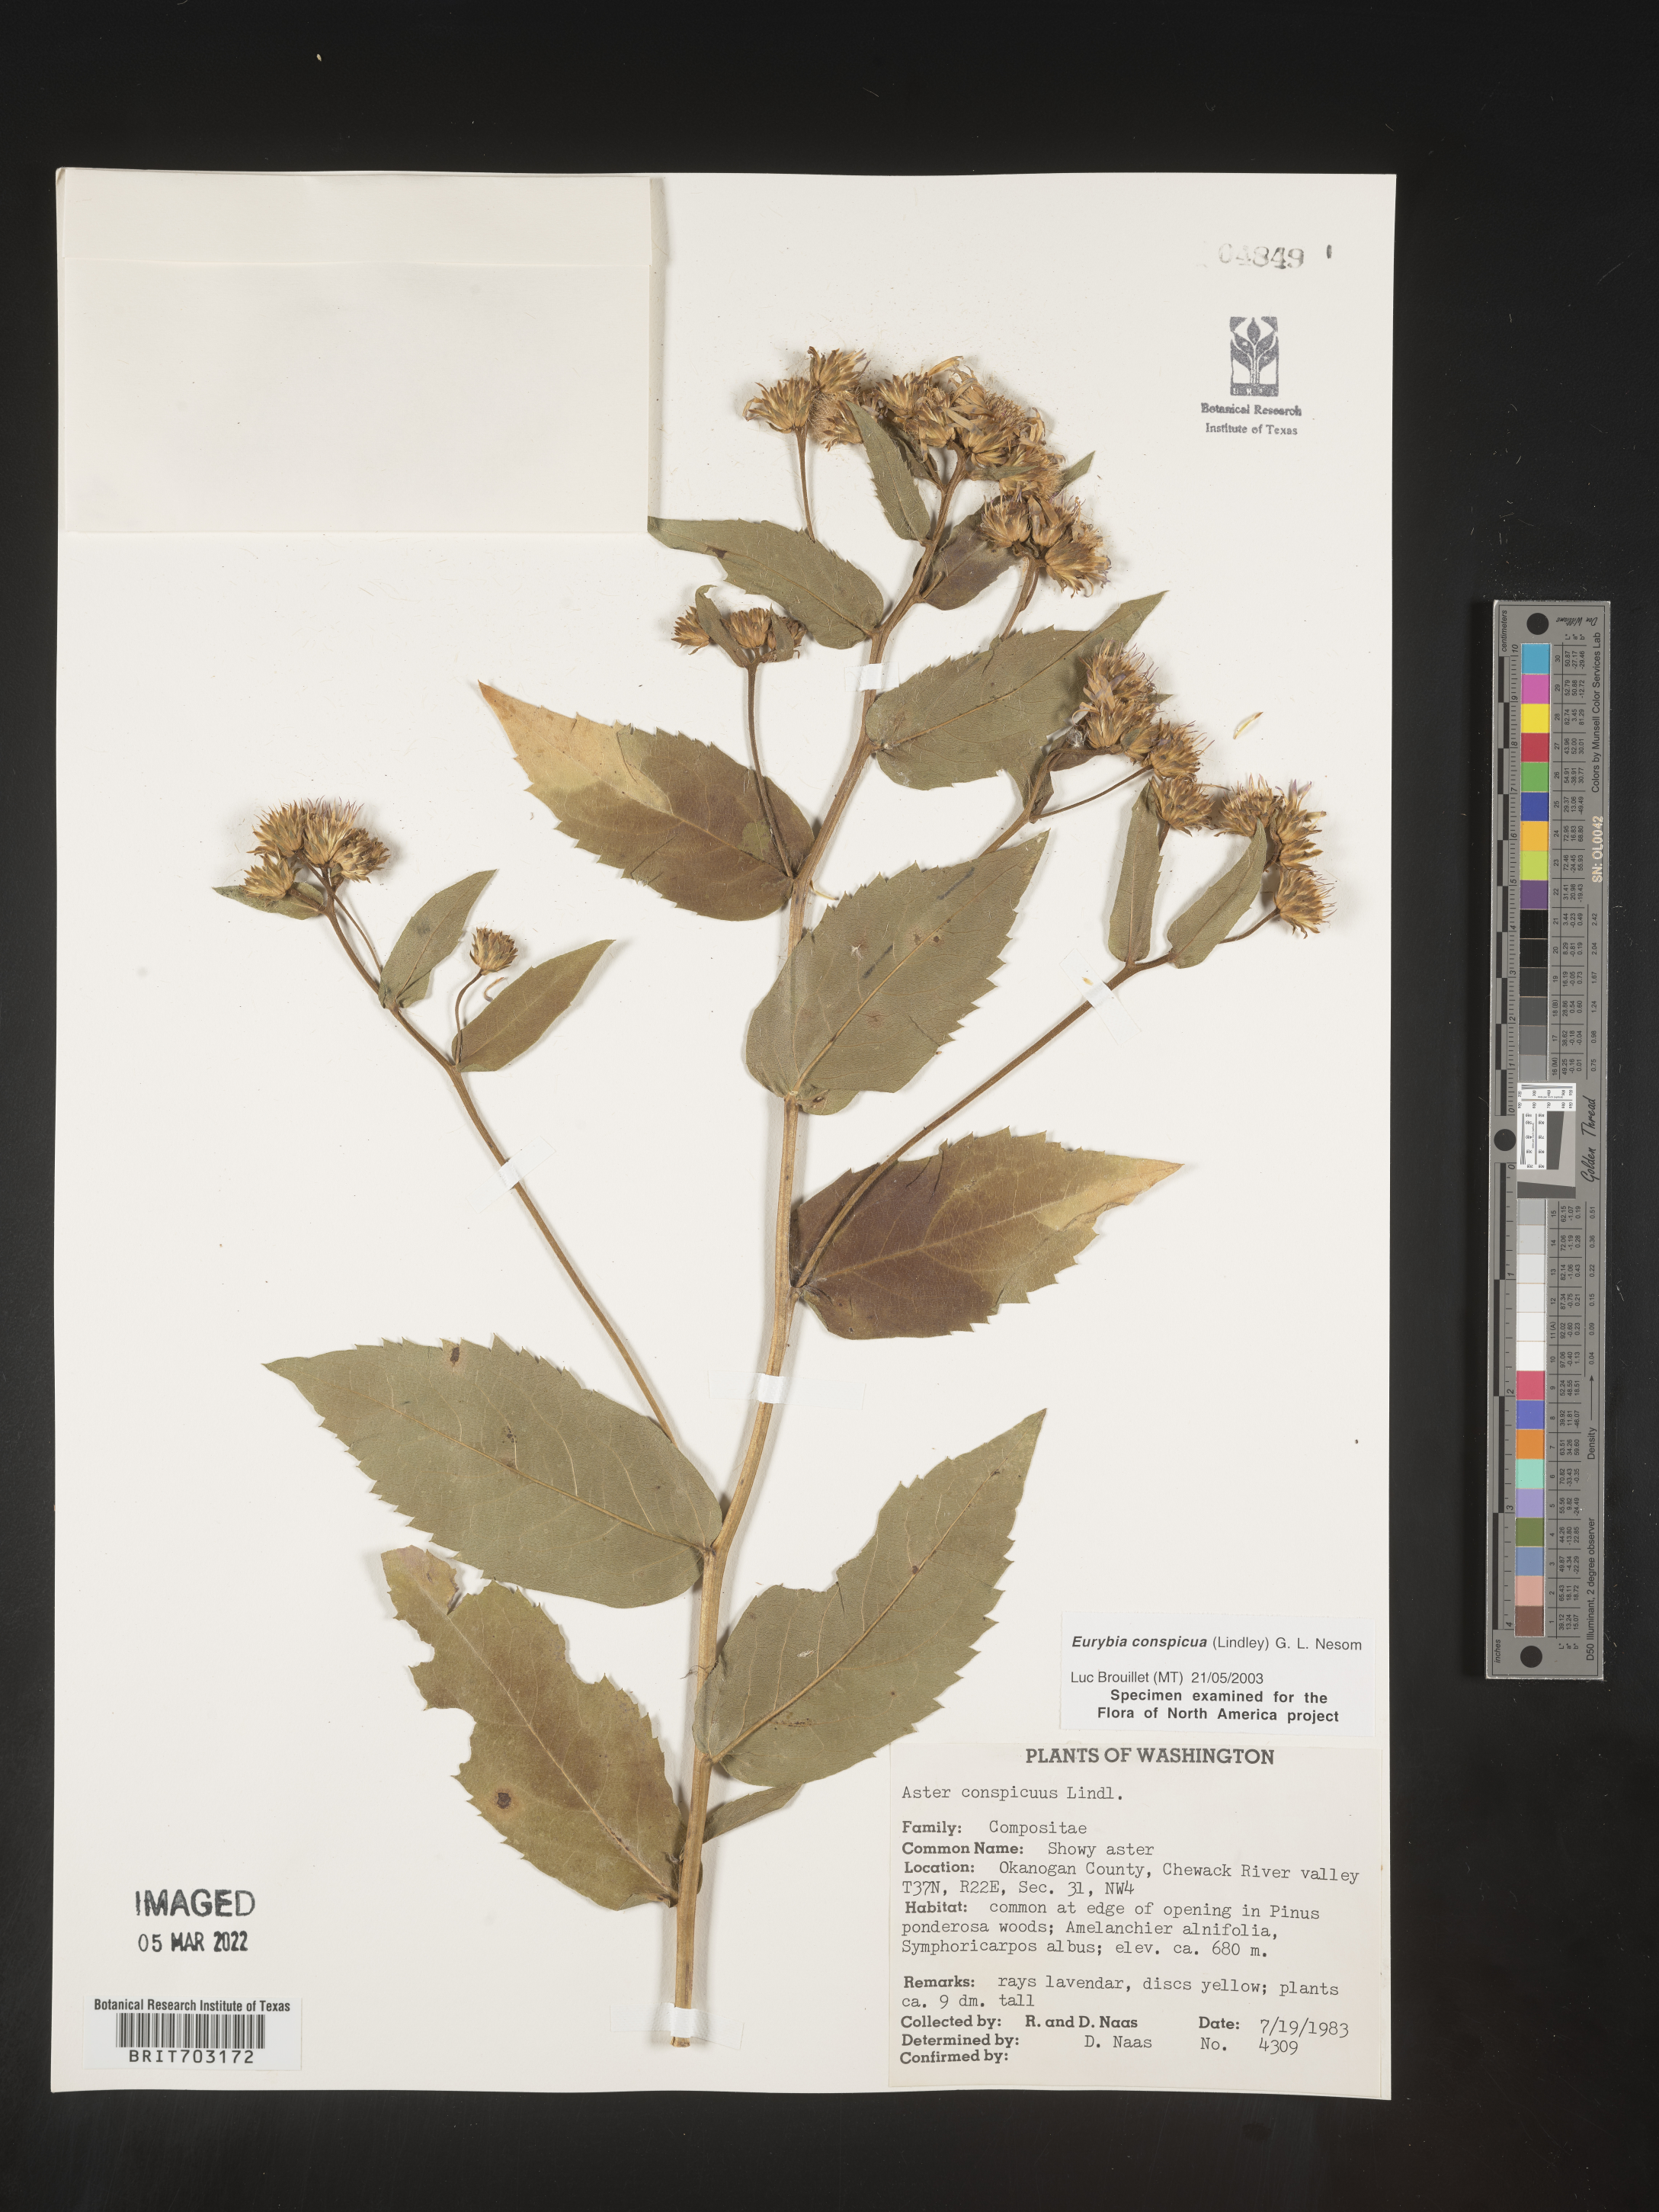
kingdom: Plantae
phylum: Tracheophyta
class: Magnoliopsida
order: Asterales
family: Asteraceae
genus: Eurybia
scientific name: Eurybia conspicua
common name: Showy aster
